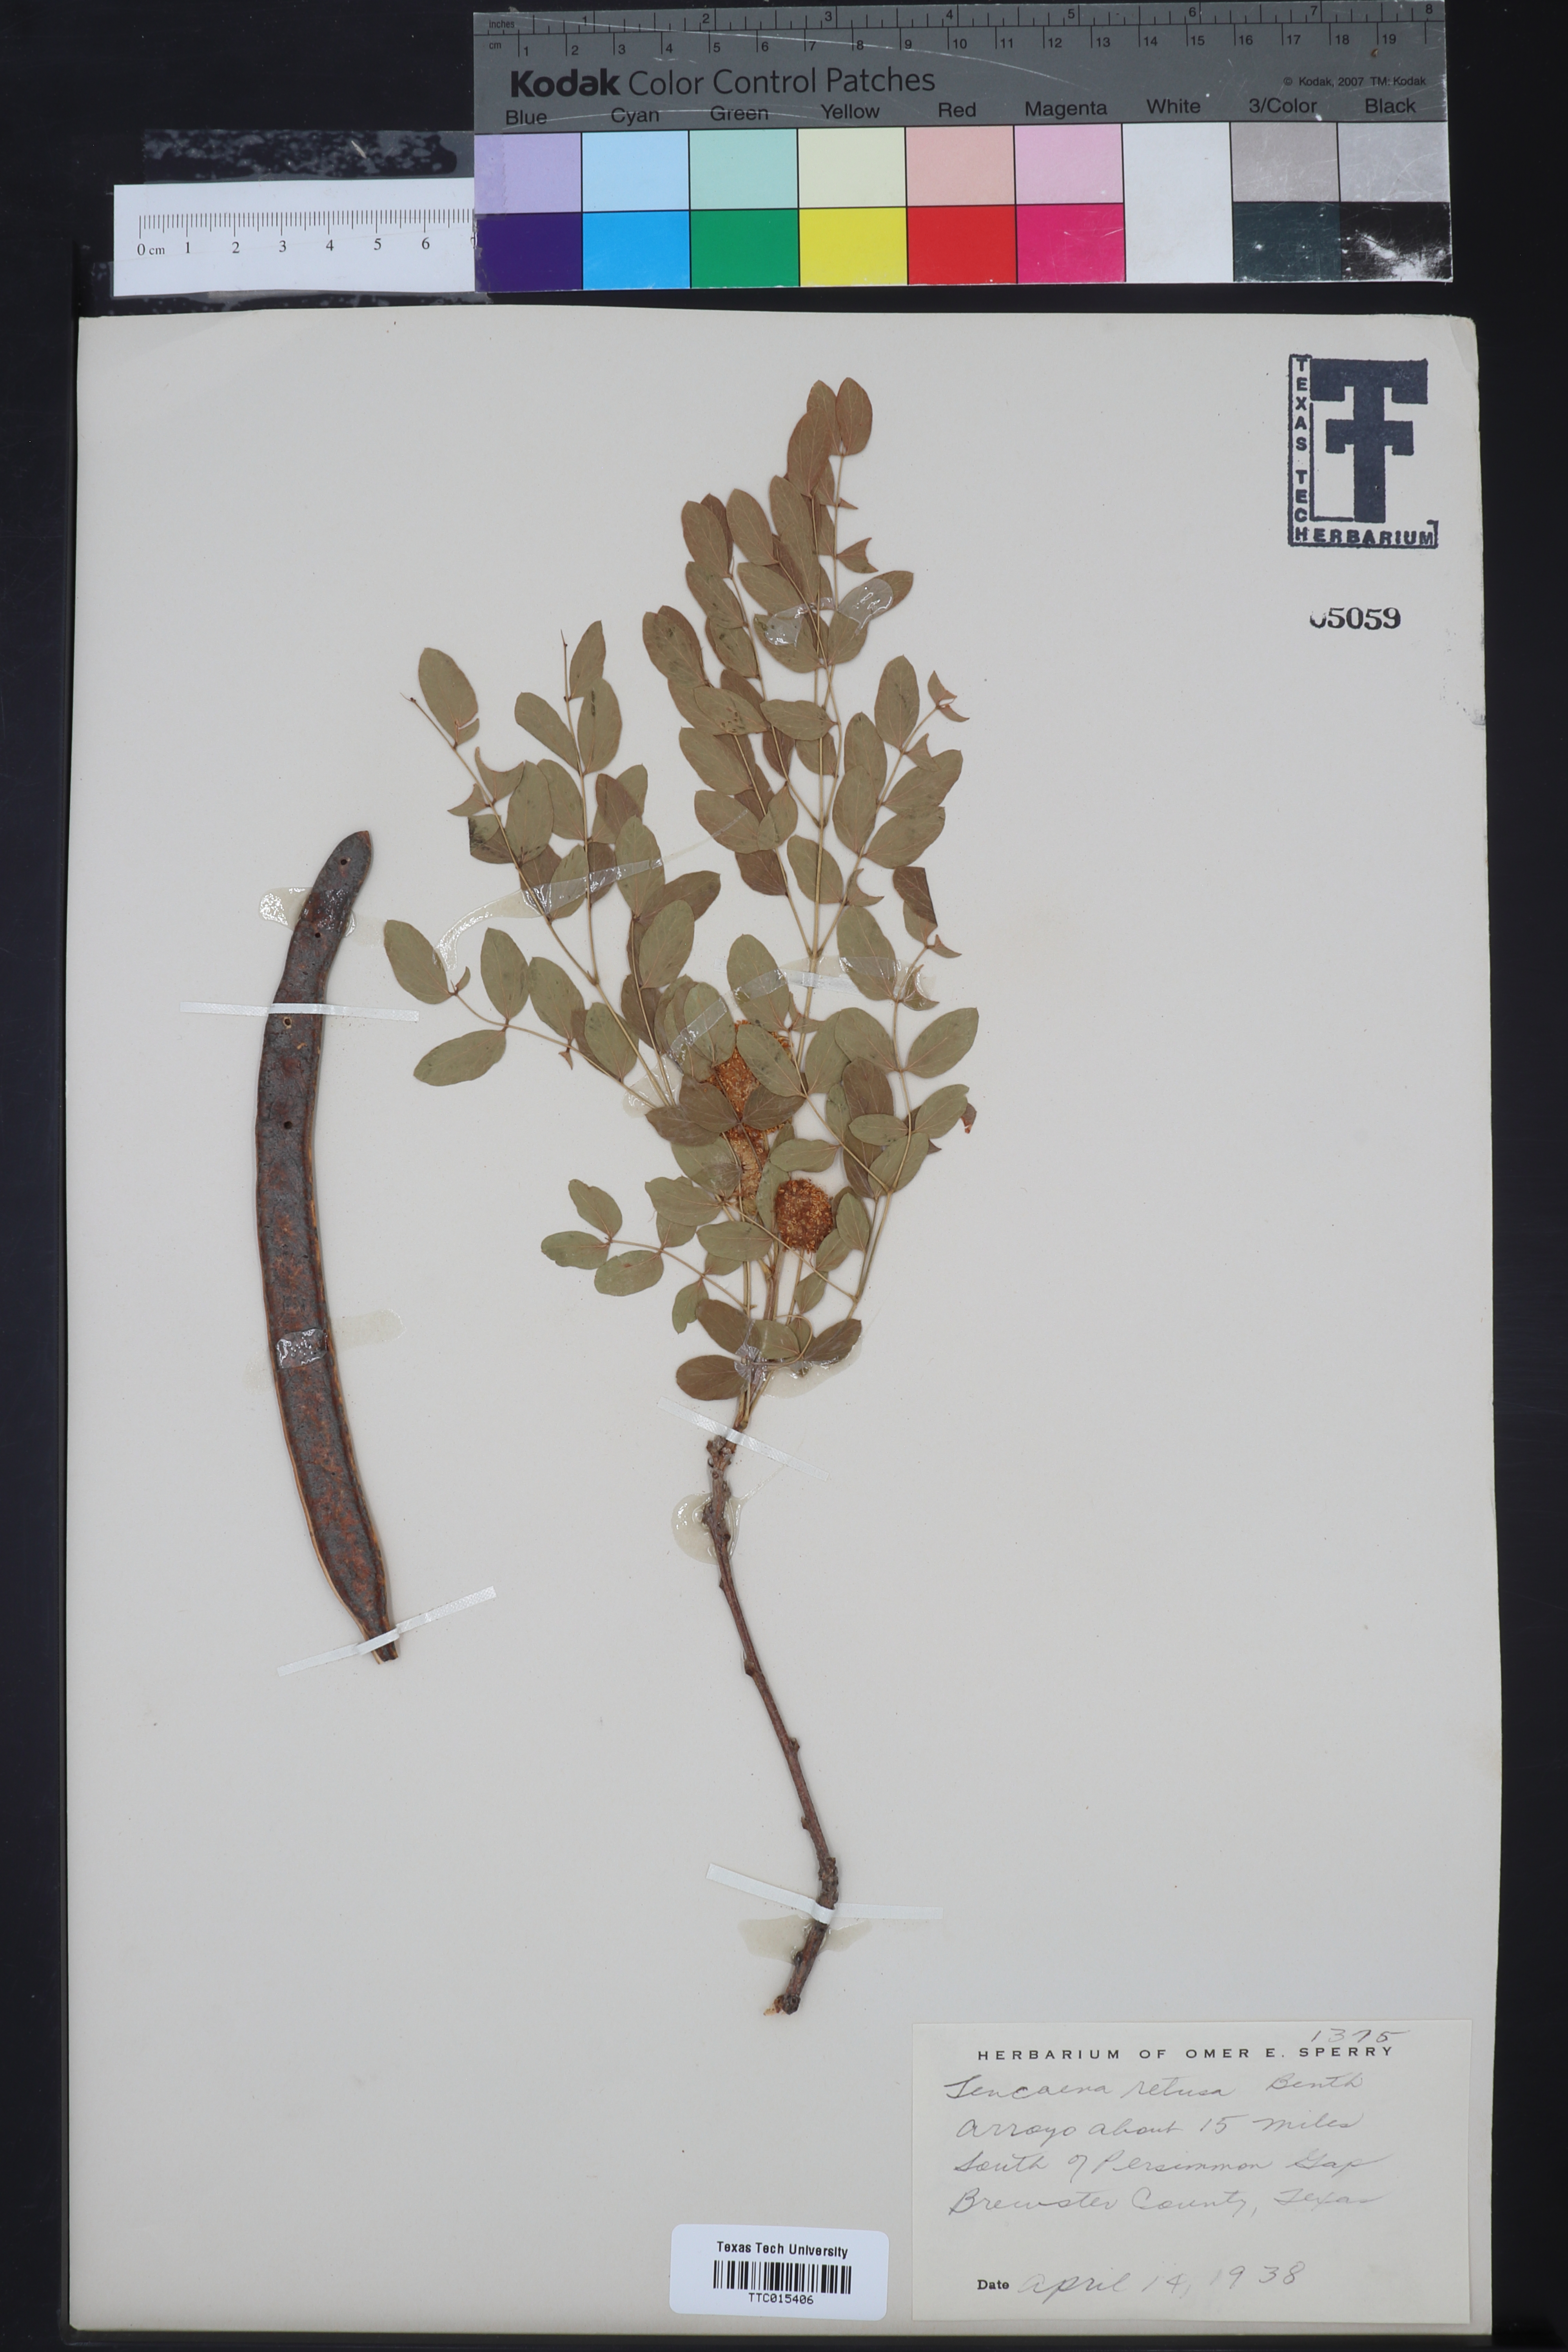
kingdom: Plantae
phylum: Tracheophyta
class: Magnoliopsida
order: Fabales
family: Fabaceae
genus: Leucaena
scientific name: Leucaena retusa
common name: Littleleaf leadtree
